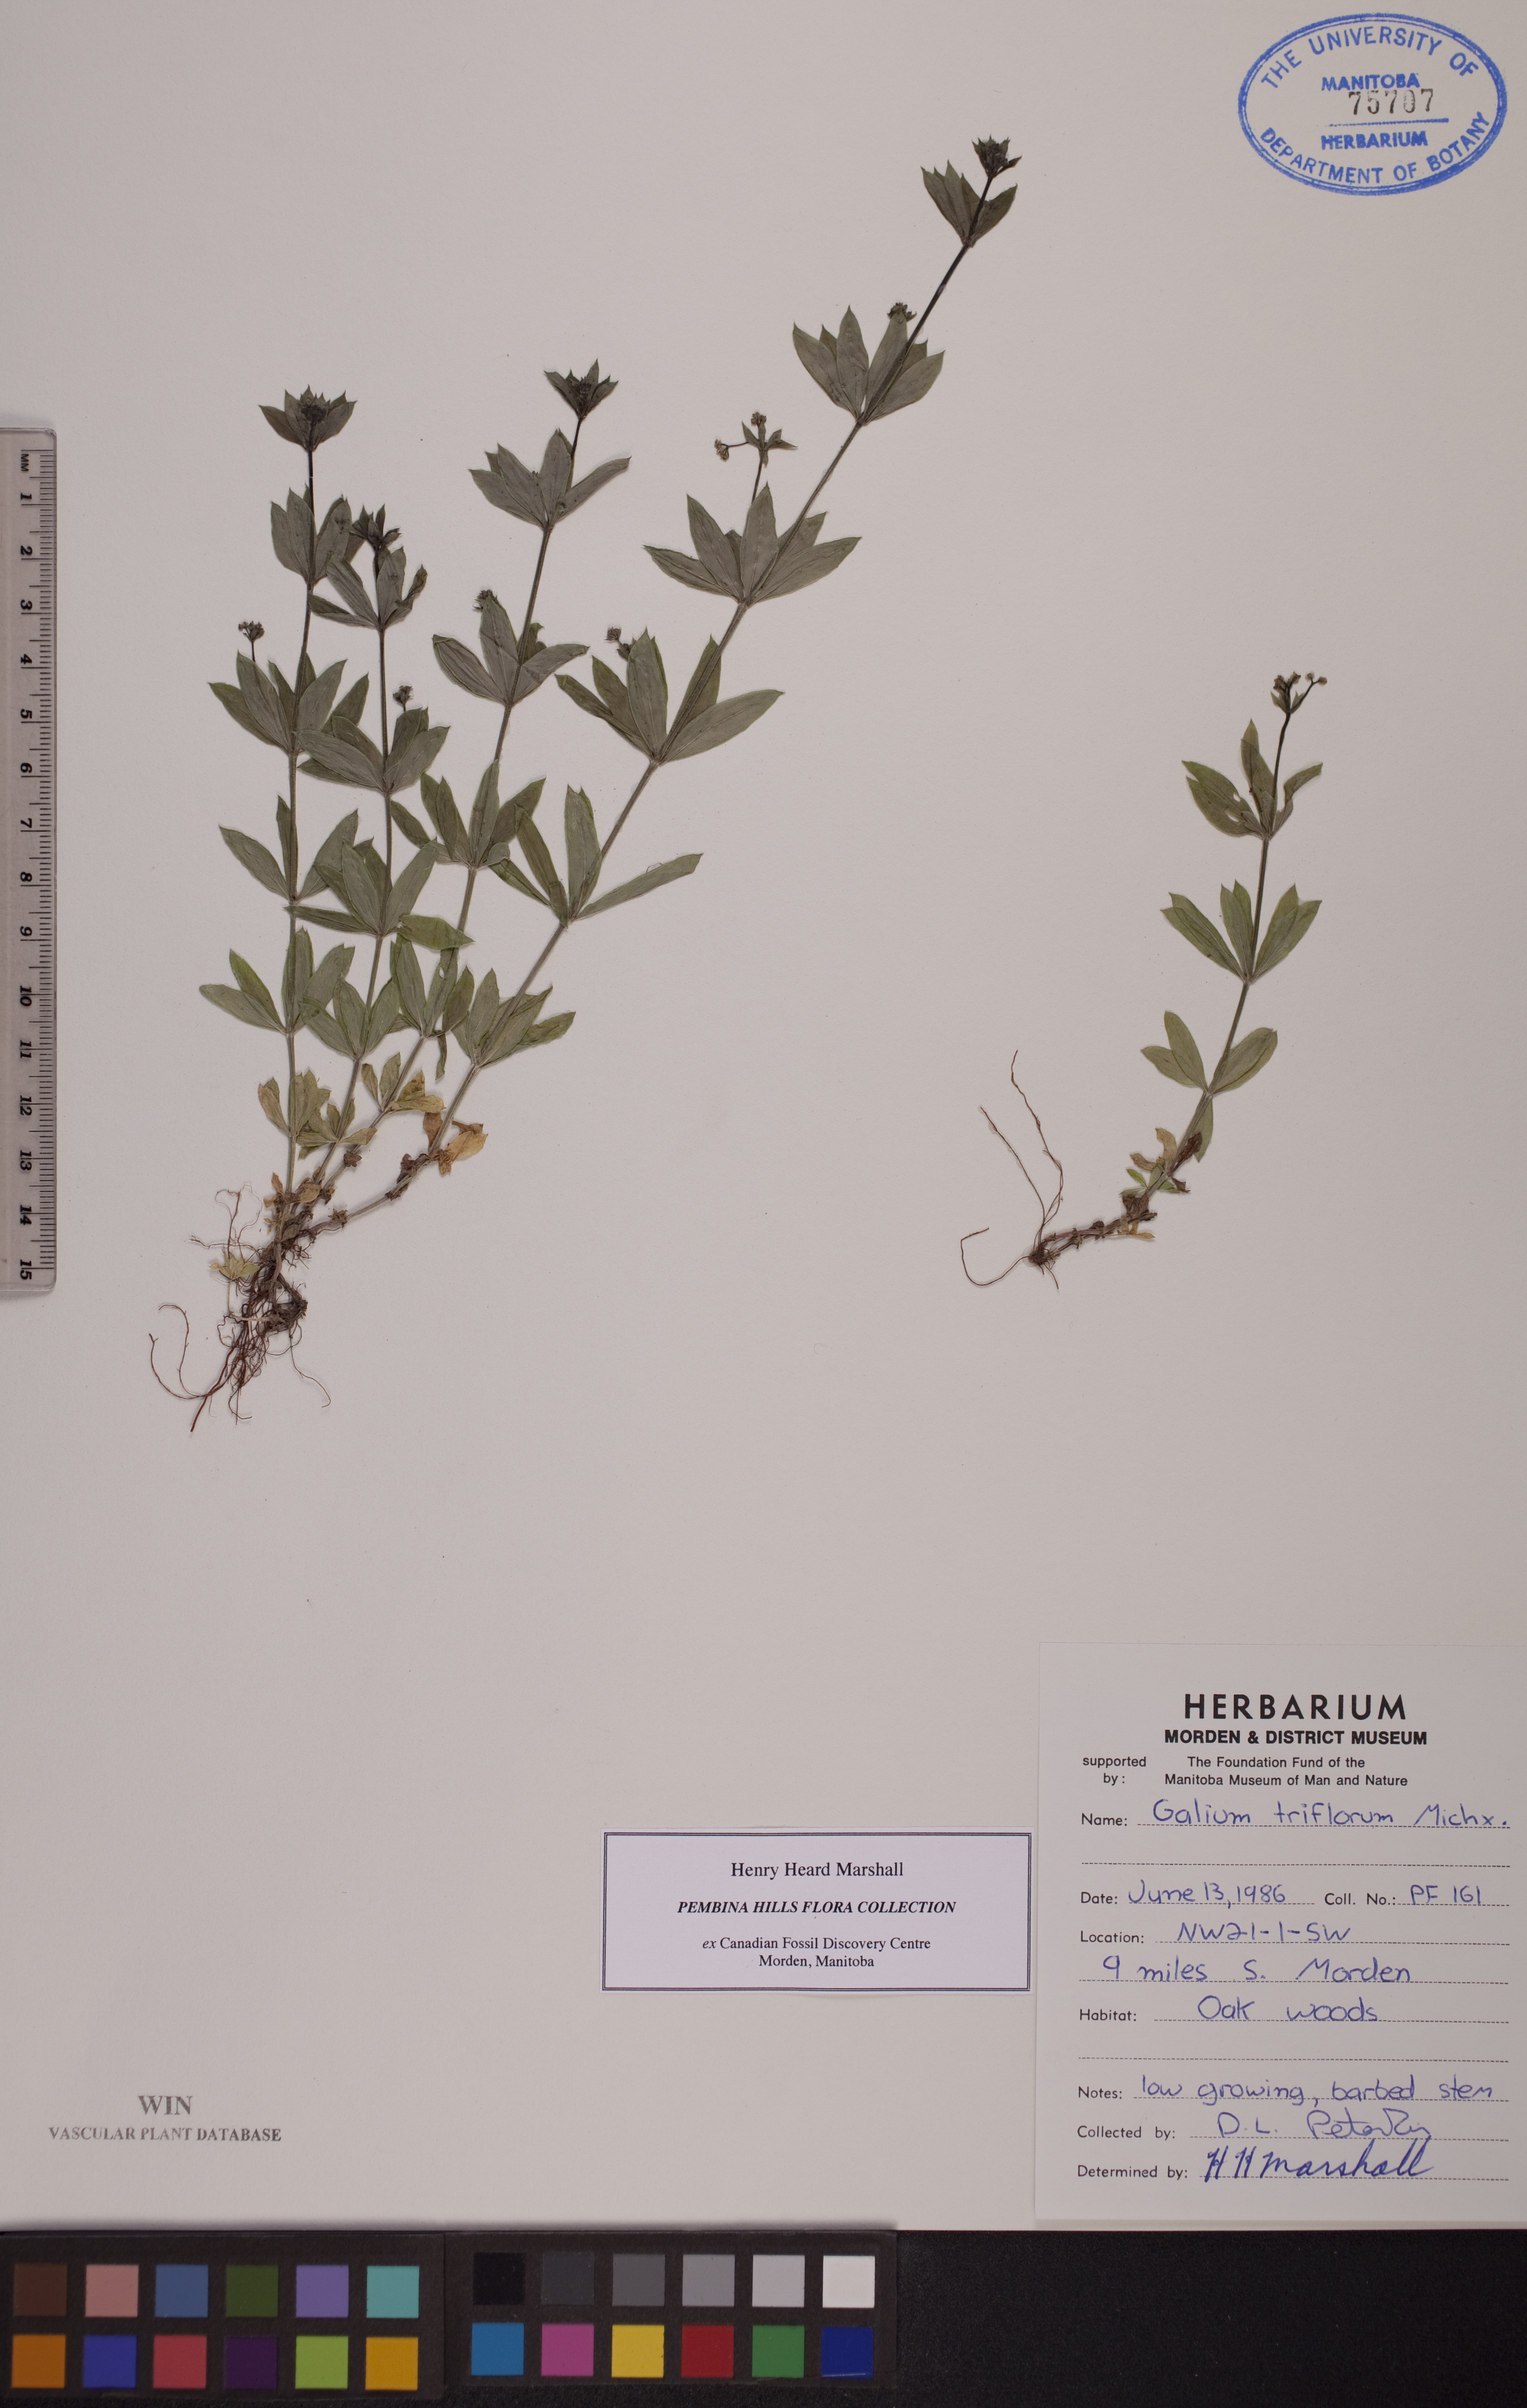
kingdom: Plantae
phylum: Tracheophyta
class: Magnoliopsida
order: Gentianales
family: Rubiaceae
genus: Galium
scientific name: Galium triflorum
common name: Fragrant bedstraw
